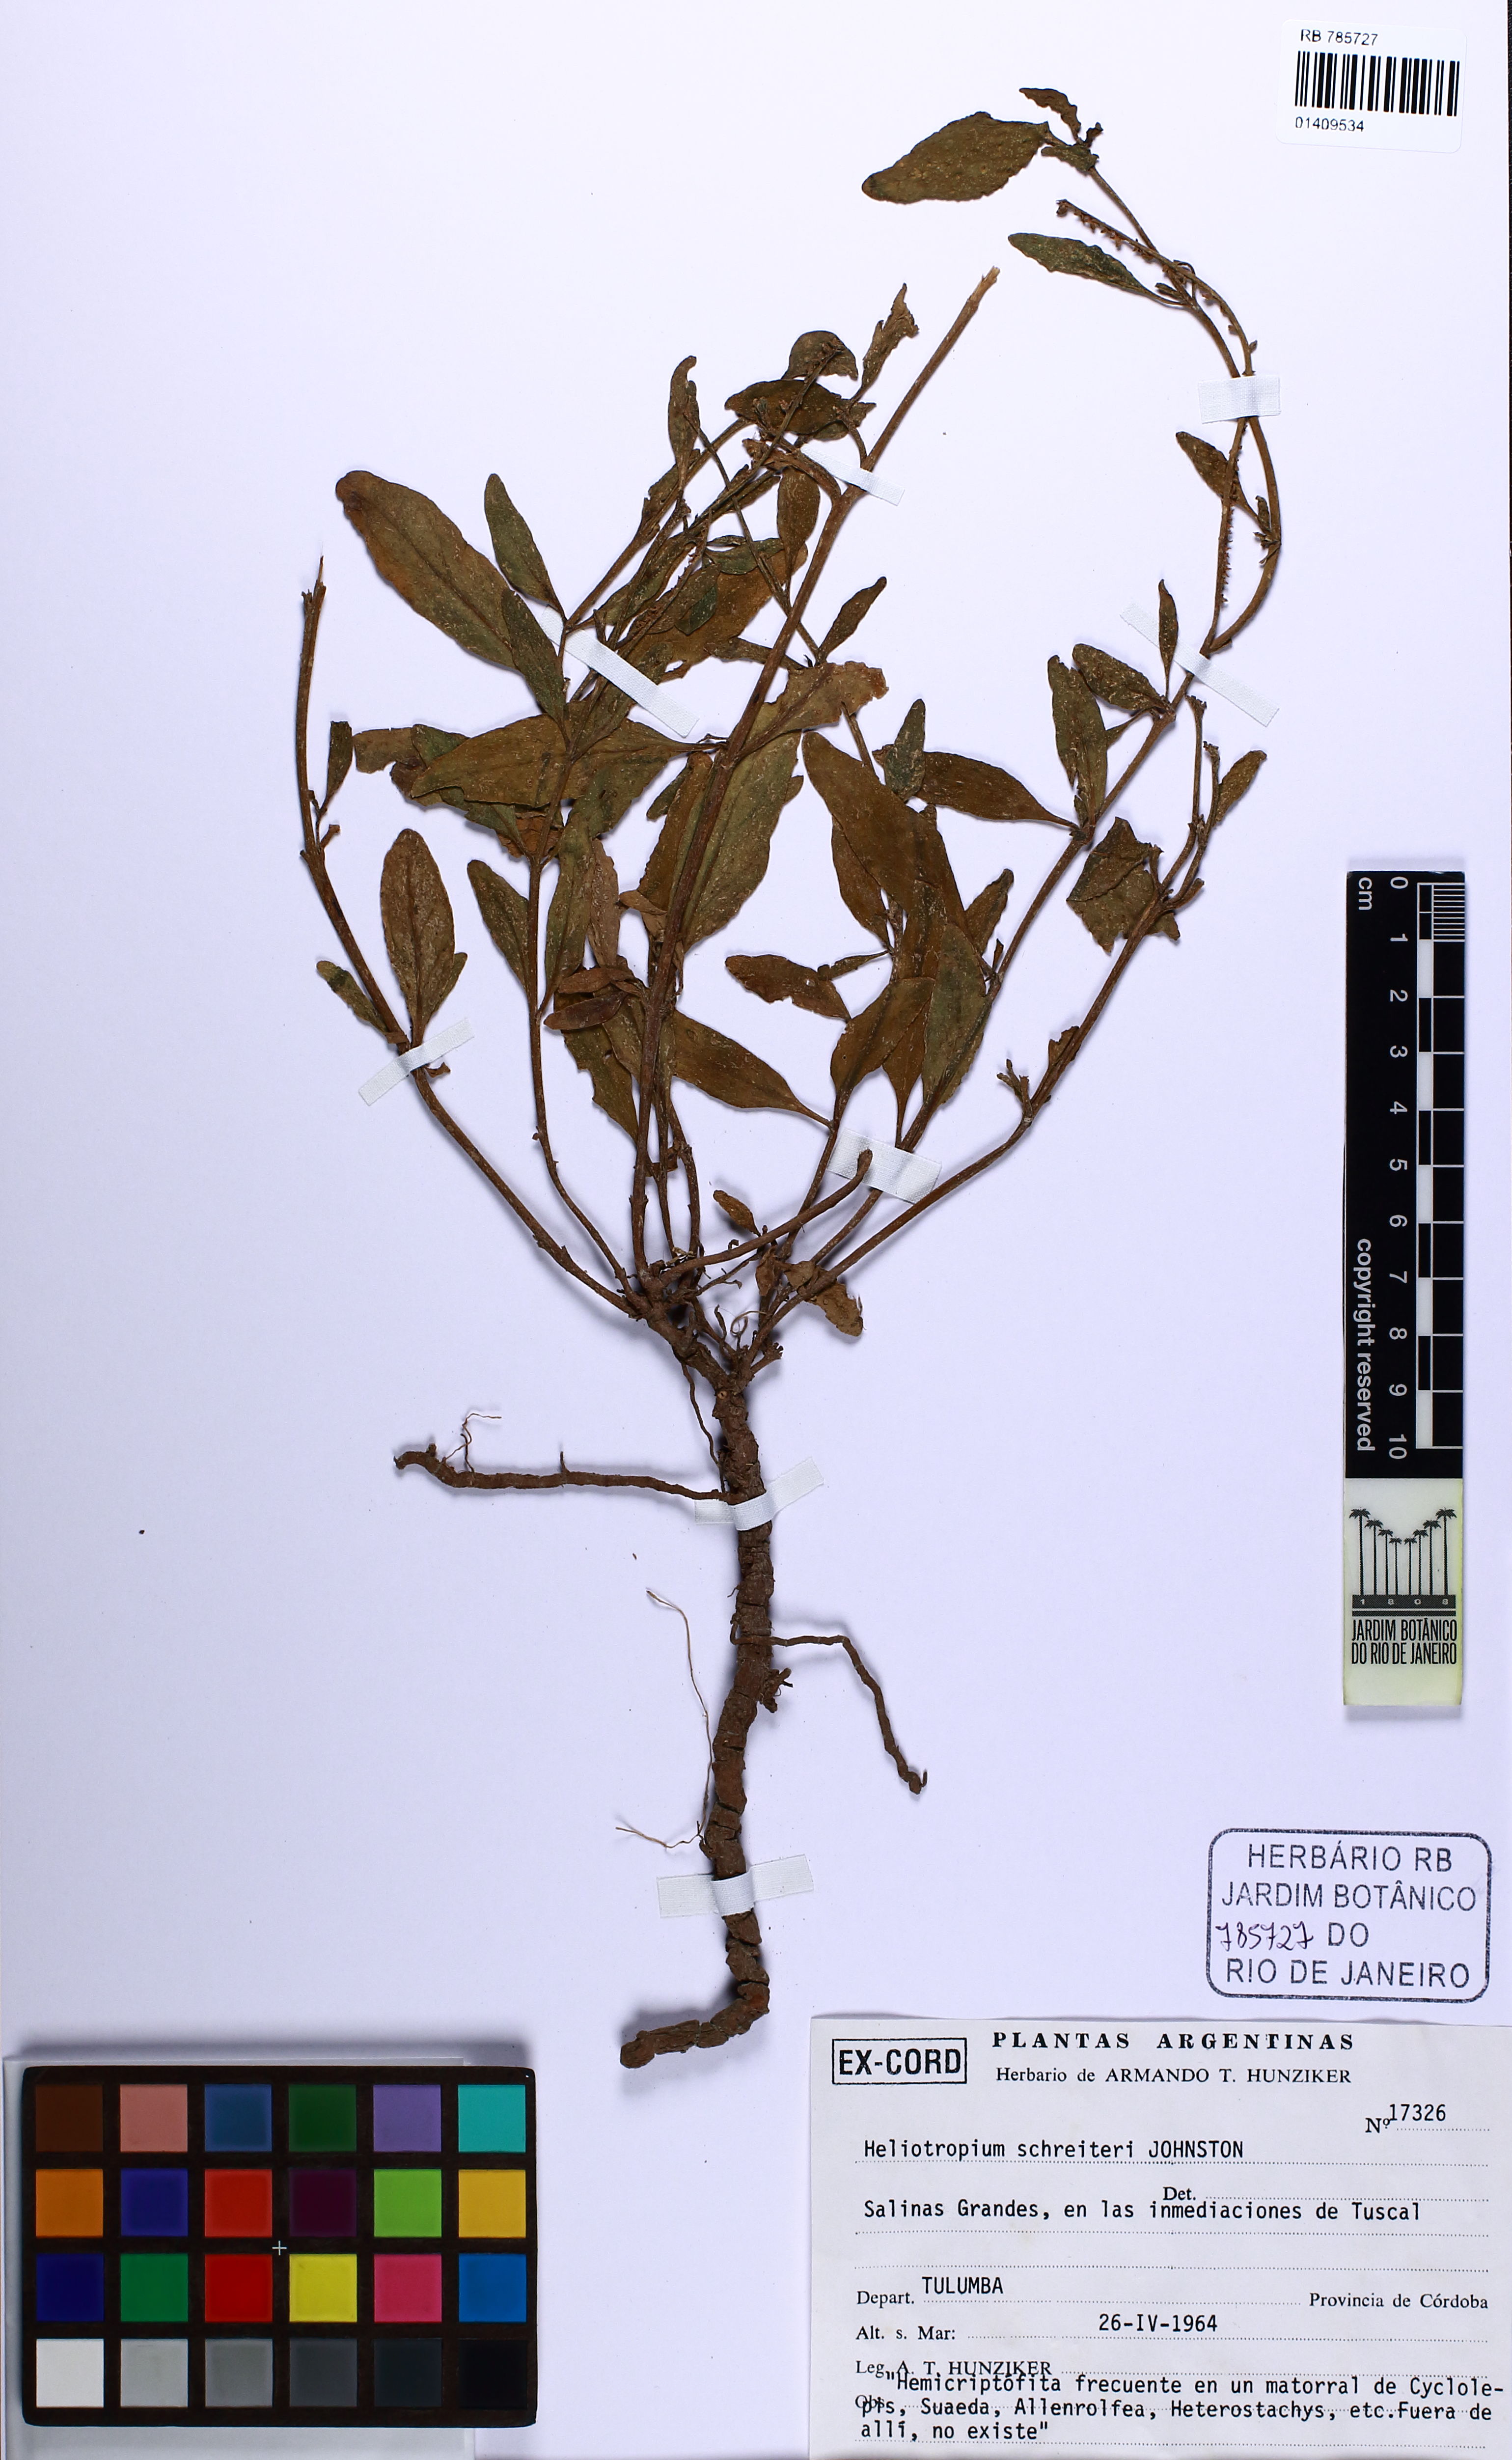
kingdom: Plantae
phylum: Tracheophyta
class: Magnoliopsida
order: Boraginales
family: Heliotropiaceae
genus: Heliotropium
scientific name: Heliotropium schreiteri
